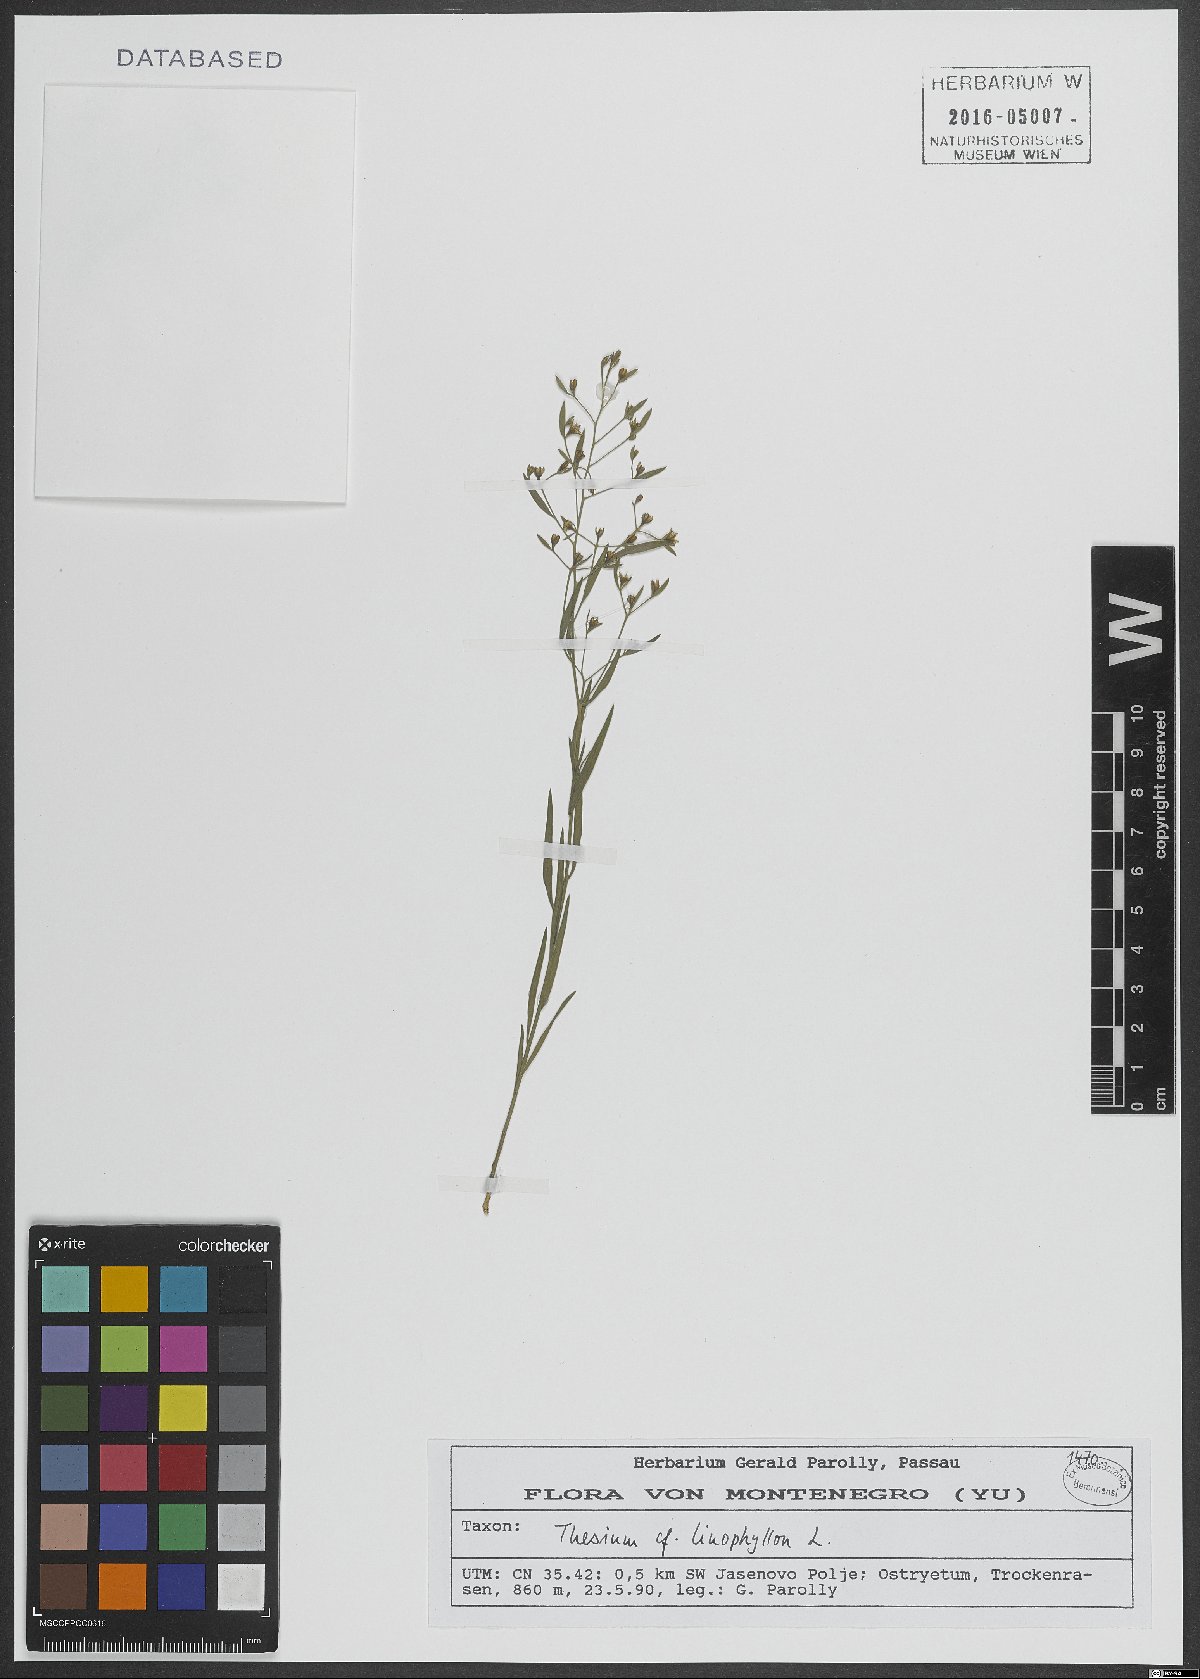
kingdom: Plantae
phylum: Tracheophyta
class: Magnoliopsida
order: Santalales
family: Thesiaceae
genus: Thesium
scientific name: Thesium linophyllon
